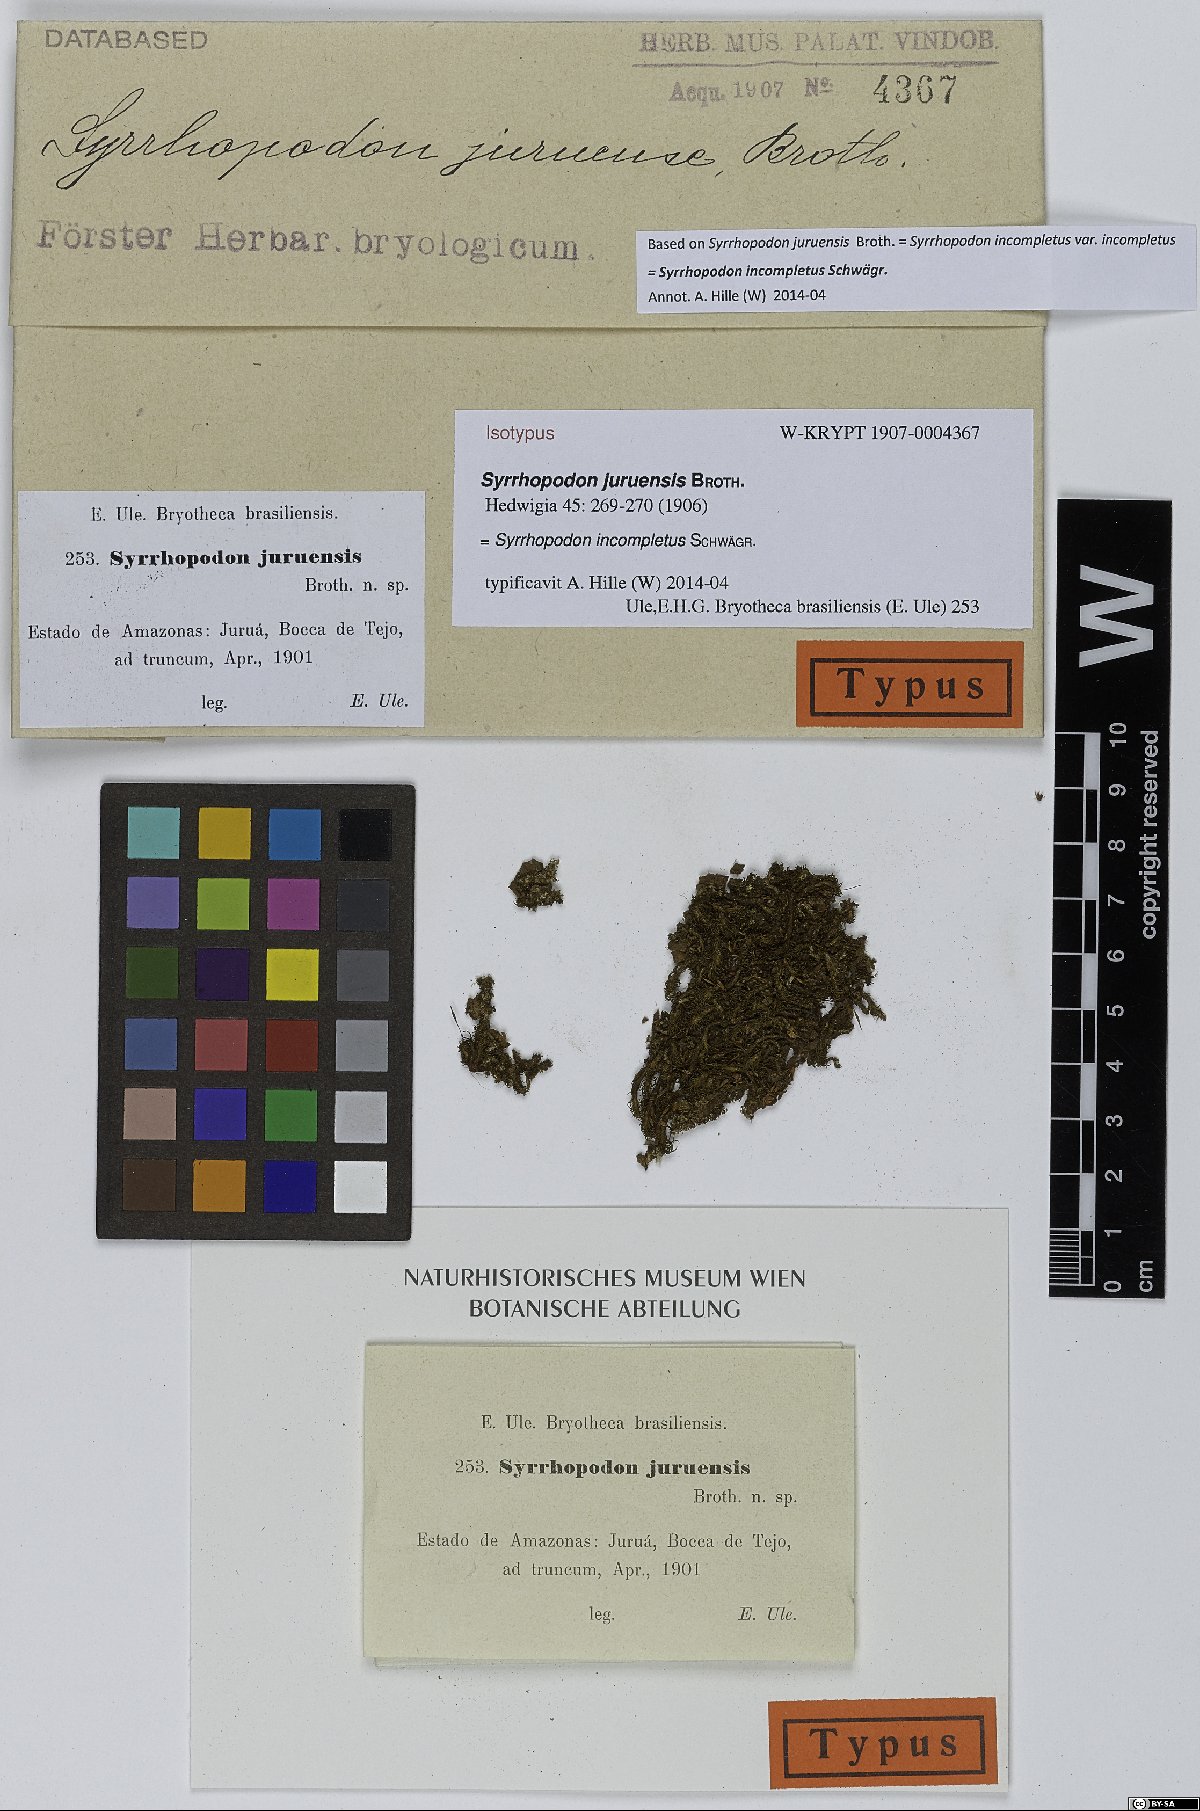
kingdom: Plantae
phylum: Bryophyta
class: Bryopsida
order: Dicranales
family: Calymperaceae
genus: Syrrhopodon
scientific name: Syrrhopodon incompletus
